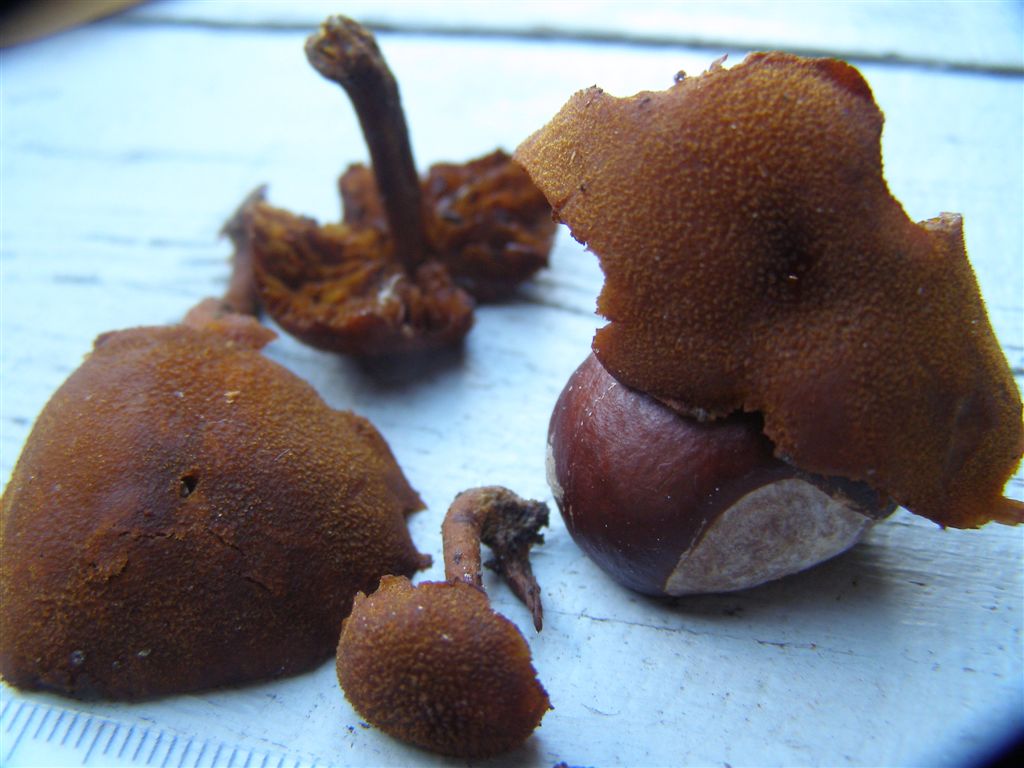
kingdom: Fungi
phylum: Basidiomycota
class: Agaricomycetes
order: Agaricales
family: Tubariaceae
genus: Flammulaster
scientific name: Flammulaster limulatus
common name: gylden grynskælhat
